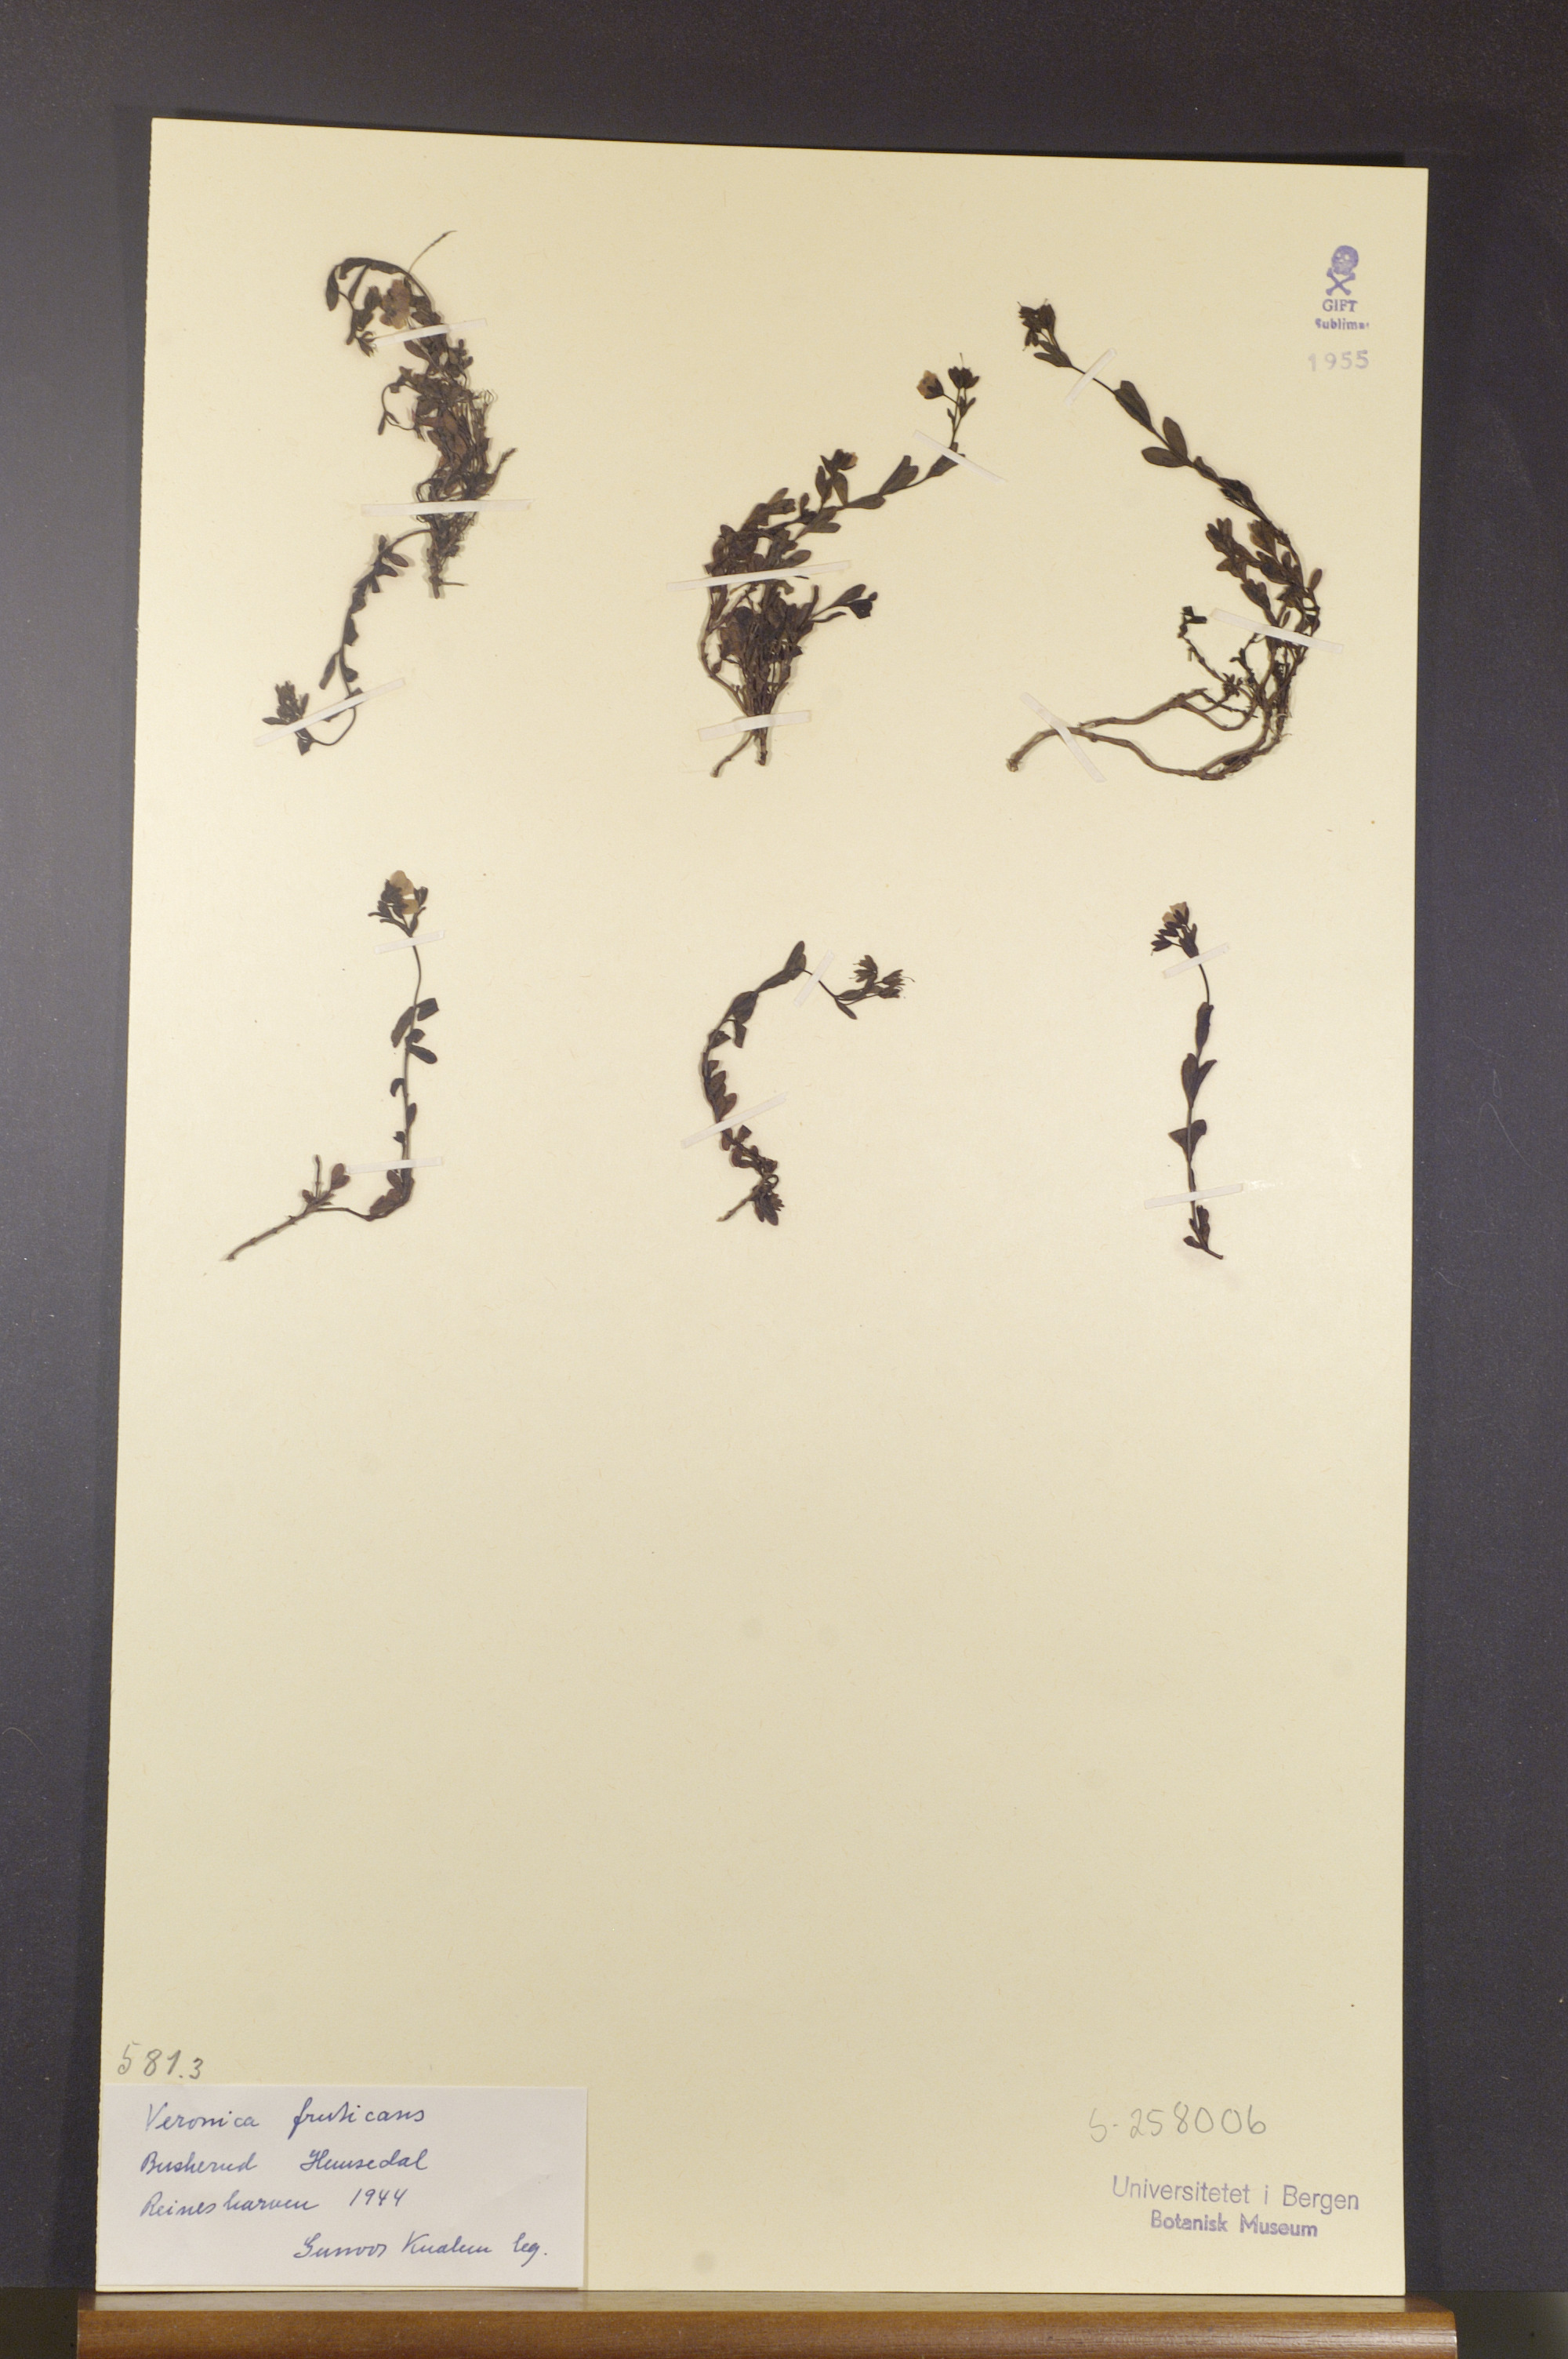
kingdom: Plantae
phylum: Tracheophyta
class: Magnoliopsida
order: Lamiales
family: Plantaginaceae
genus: Veronica
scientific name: Veronica fruticans
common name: Rock speedwell
